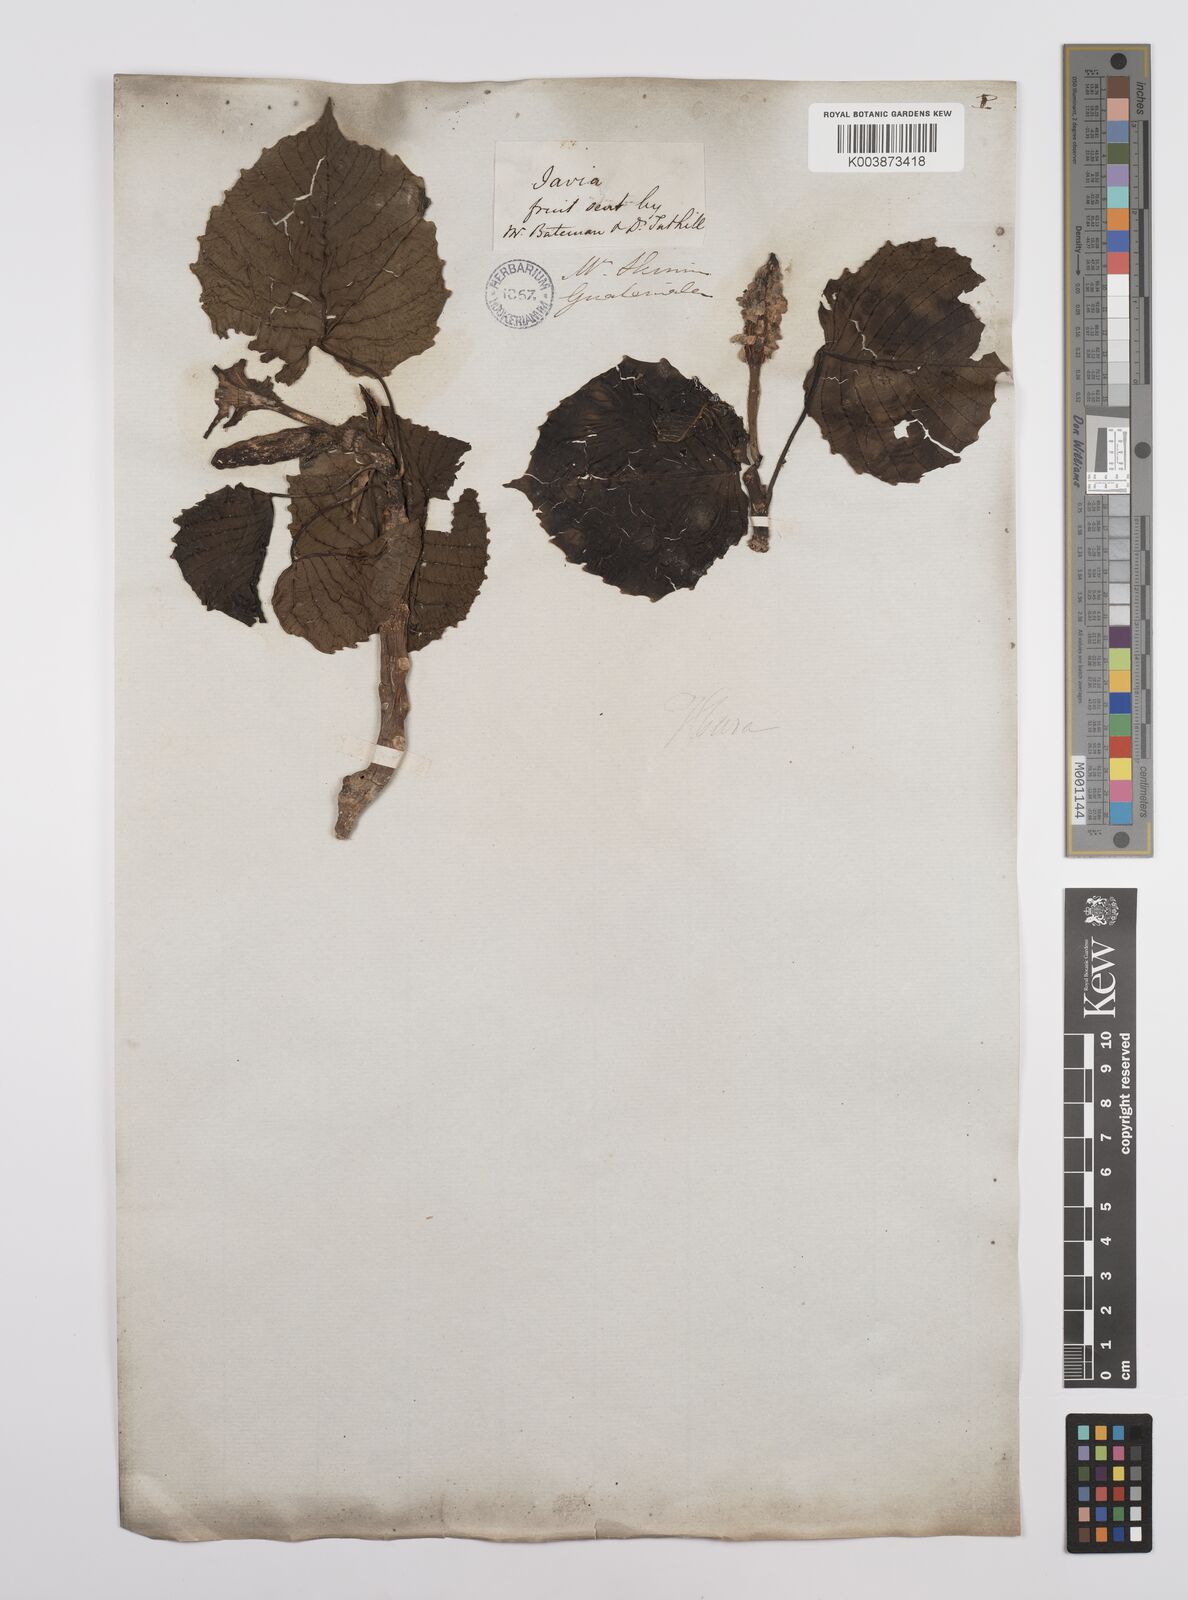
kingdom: Plantae
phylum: Tracheophyta
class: Magnoliopsida
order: Malpighiales
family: Euphorbiaceae
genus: Hura
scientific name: Hura polyandra
